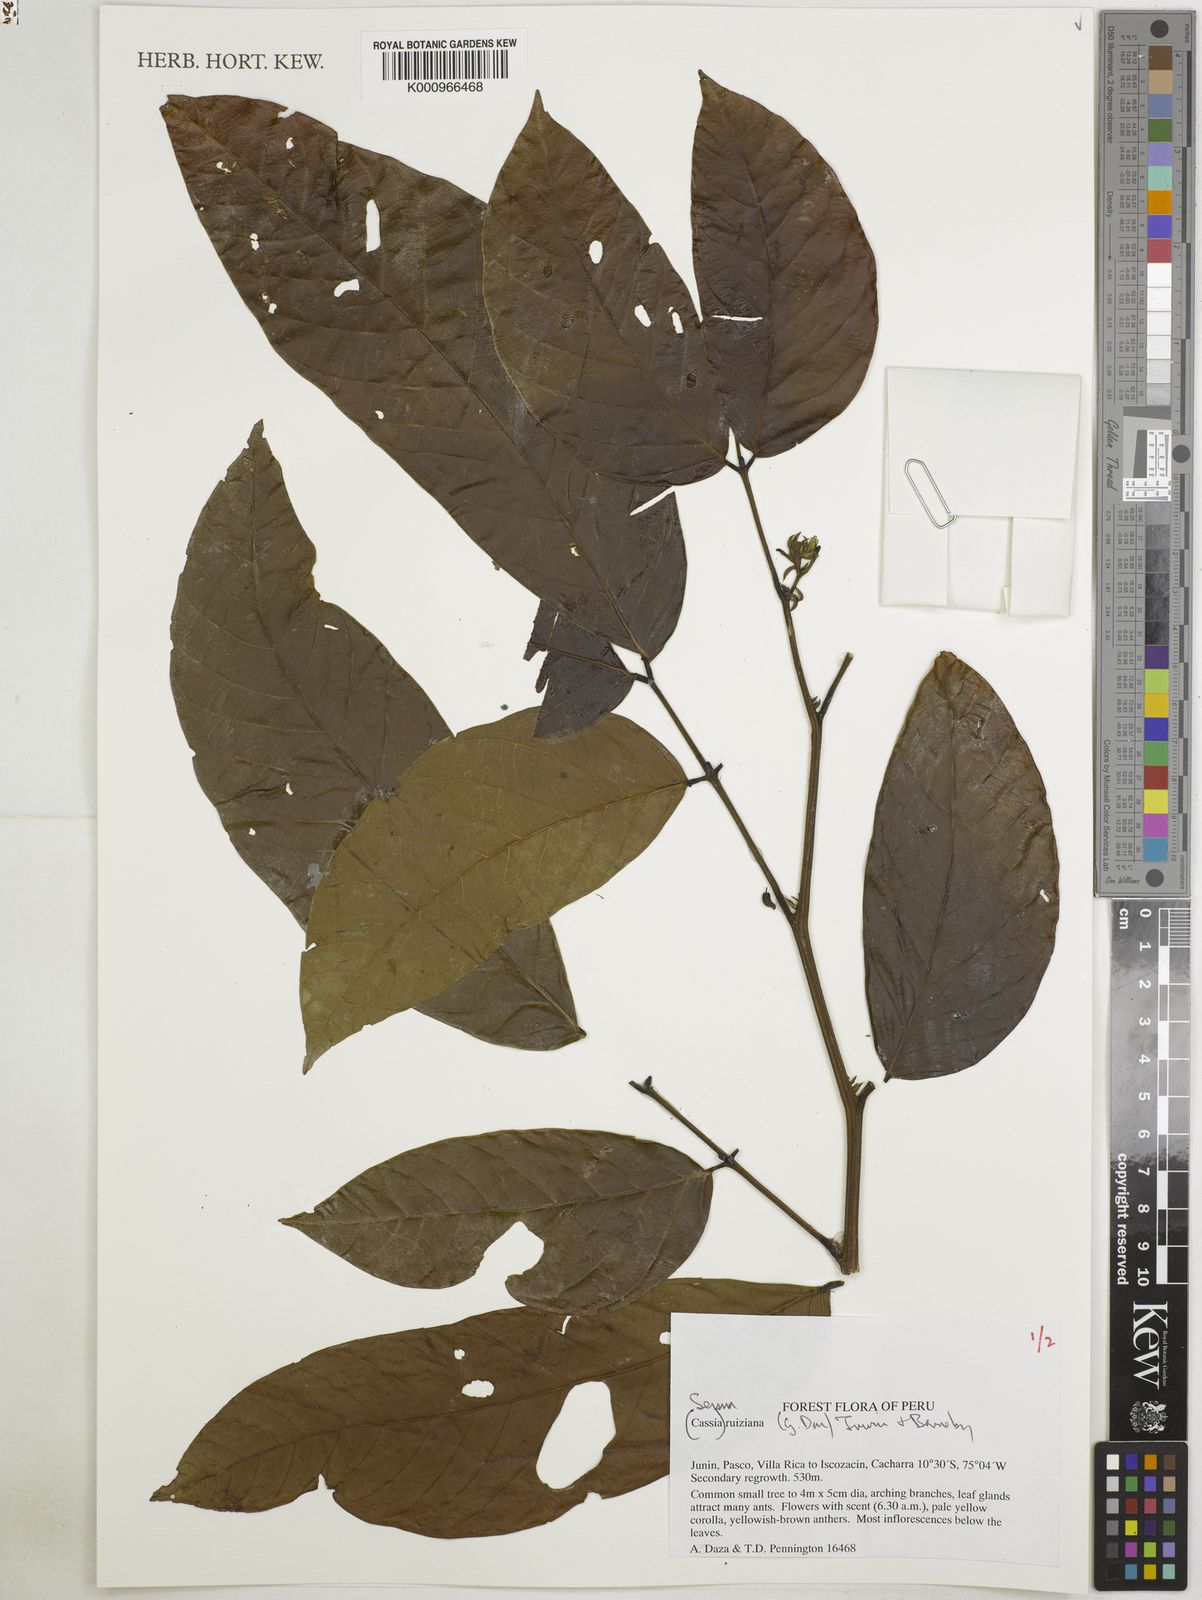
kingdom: Plantae
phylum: Tracheophyta
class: Magnoliopsida
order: Fabales
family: Fabaceae
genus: Senna
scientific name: Senna ruiziana
